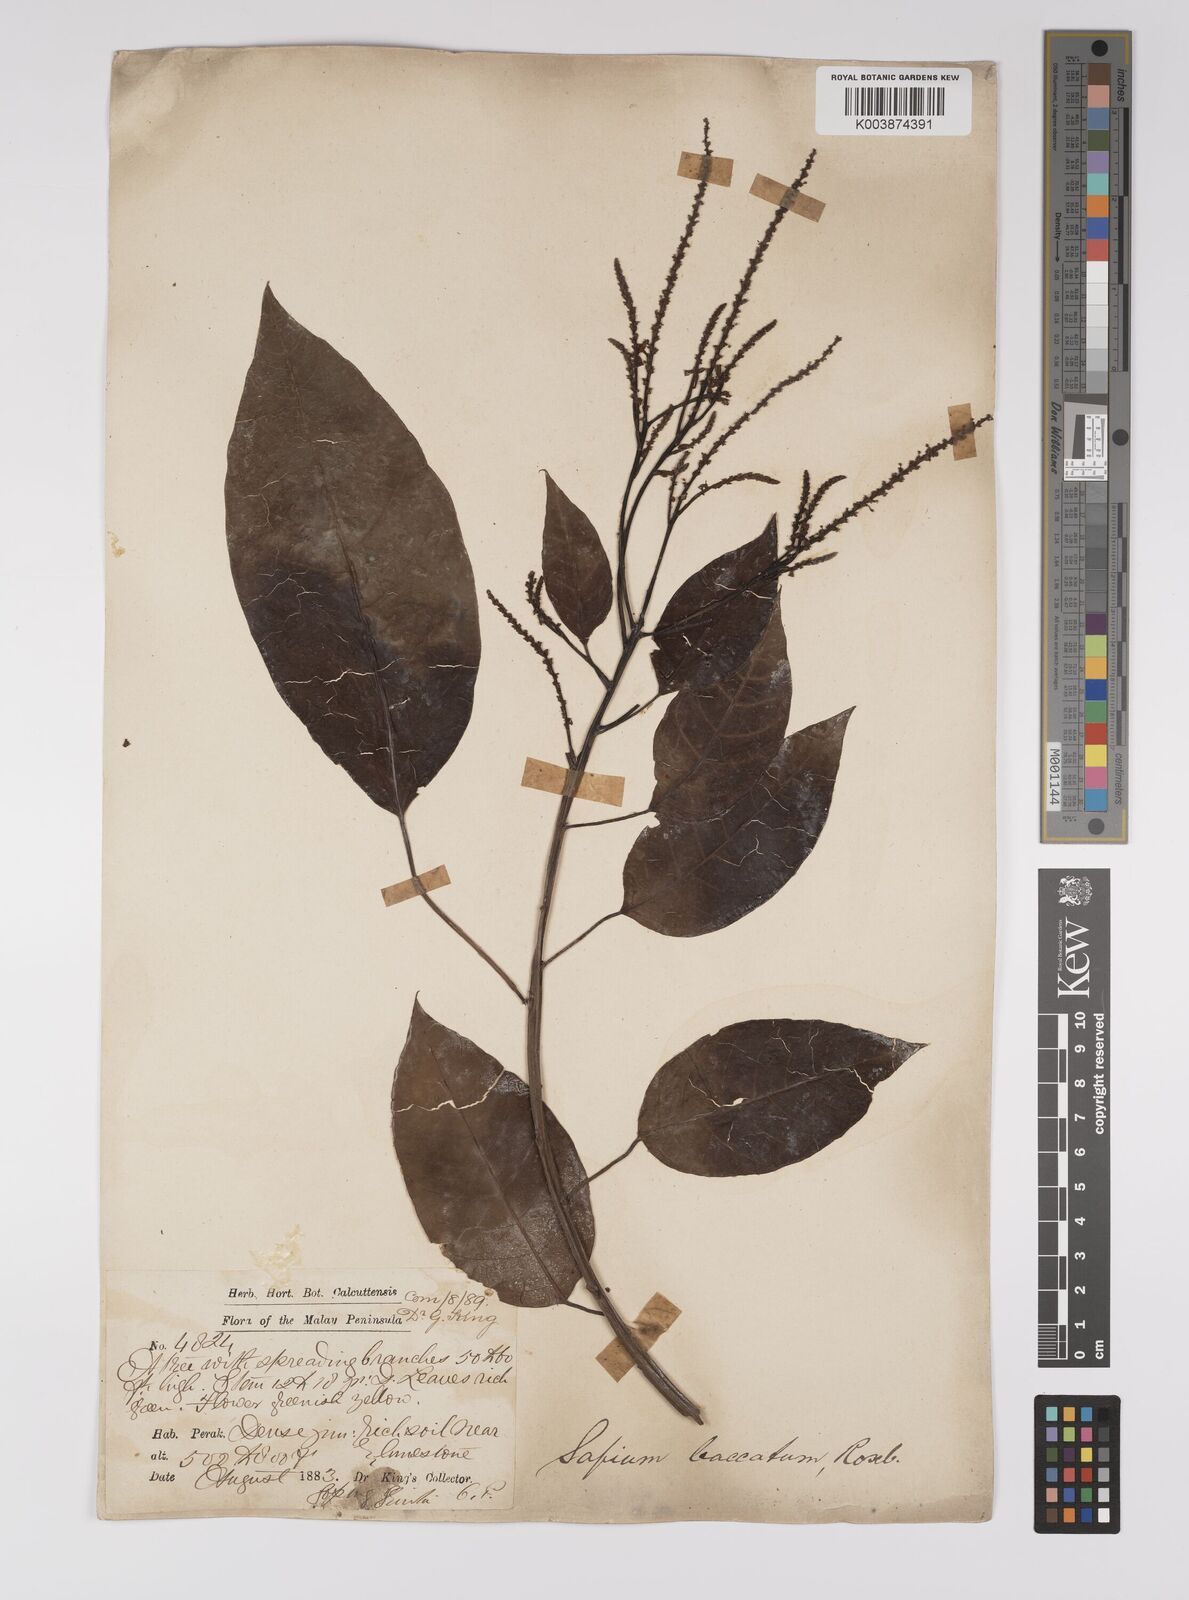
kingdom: Plantae
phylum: Tracheophyta
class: Magnoliopsida
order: Malpighiales
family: Euphorbiaceae
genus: Balakata
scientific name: Balakata baccata
